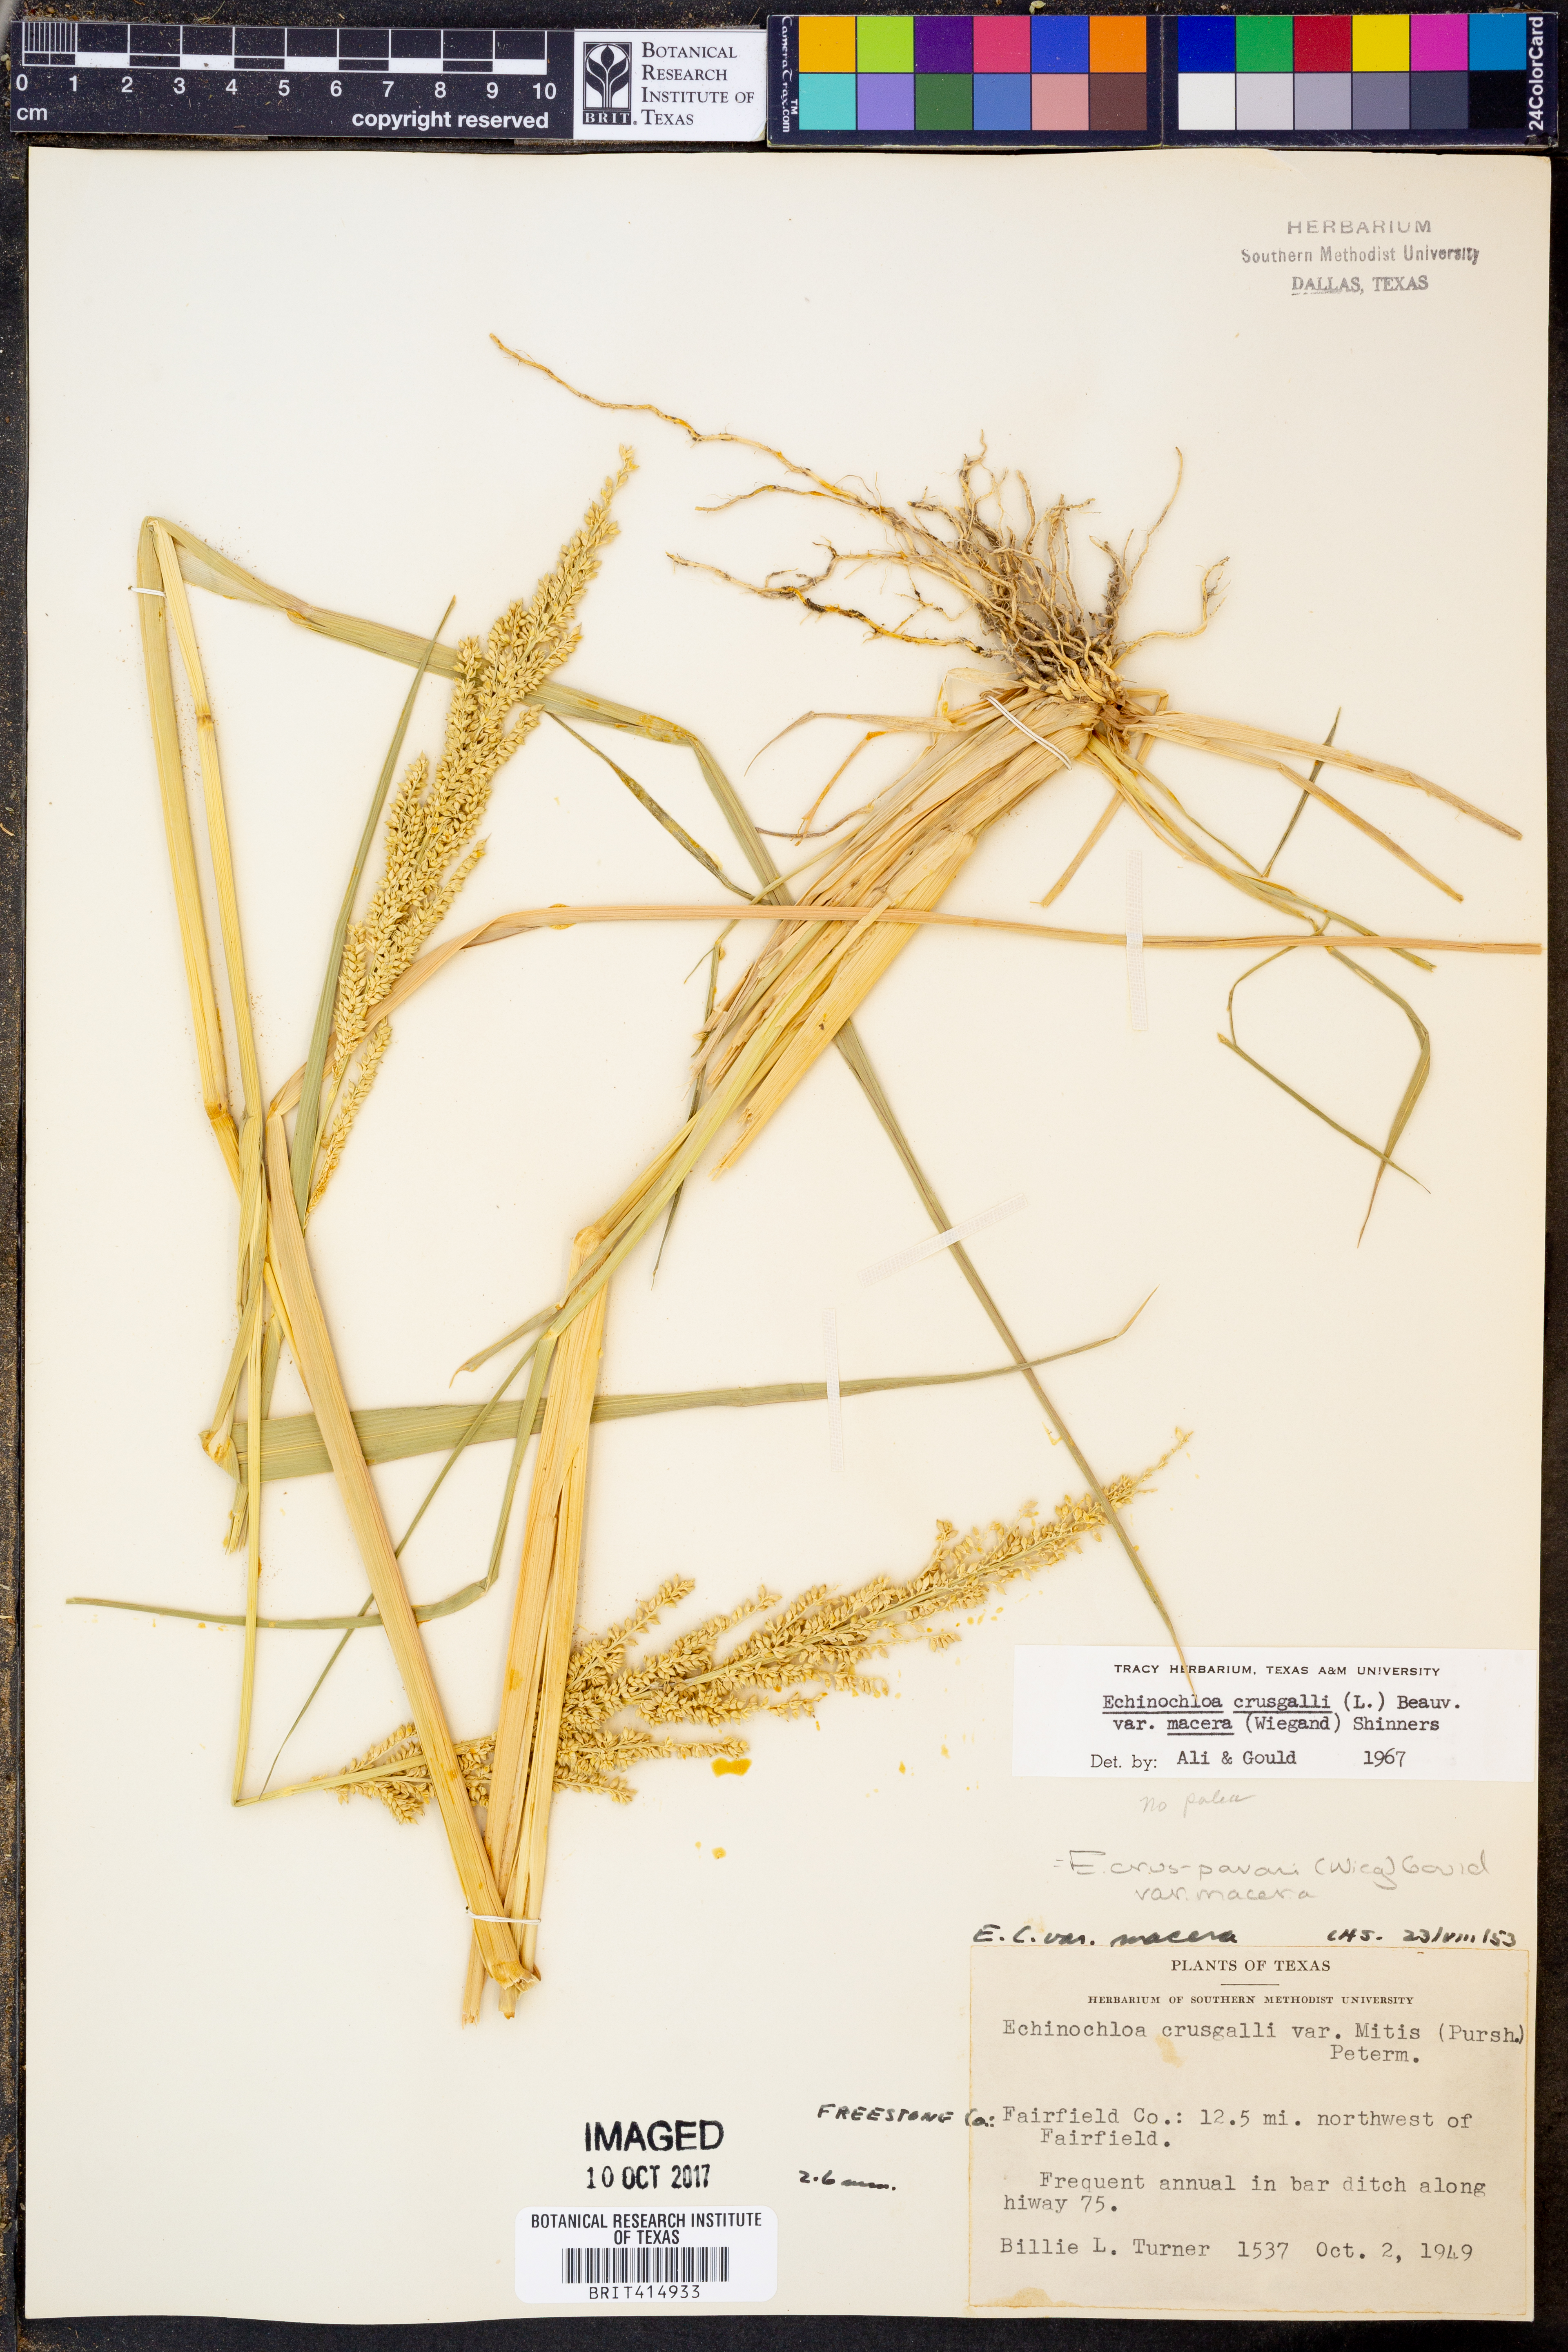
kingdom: Plantae
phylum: Tracheophyta
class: Liliopsida
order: Poales
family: Poaceae
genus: Echinochloa
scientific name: Echinochloa crus-pavonis
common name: Gulf cockspur grass
